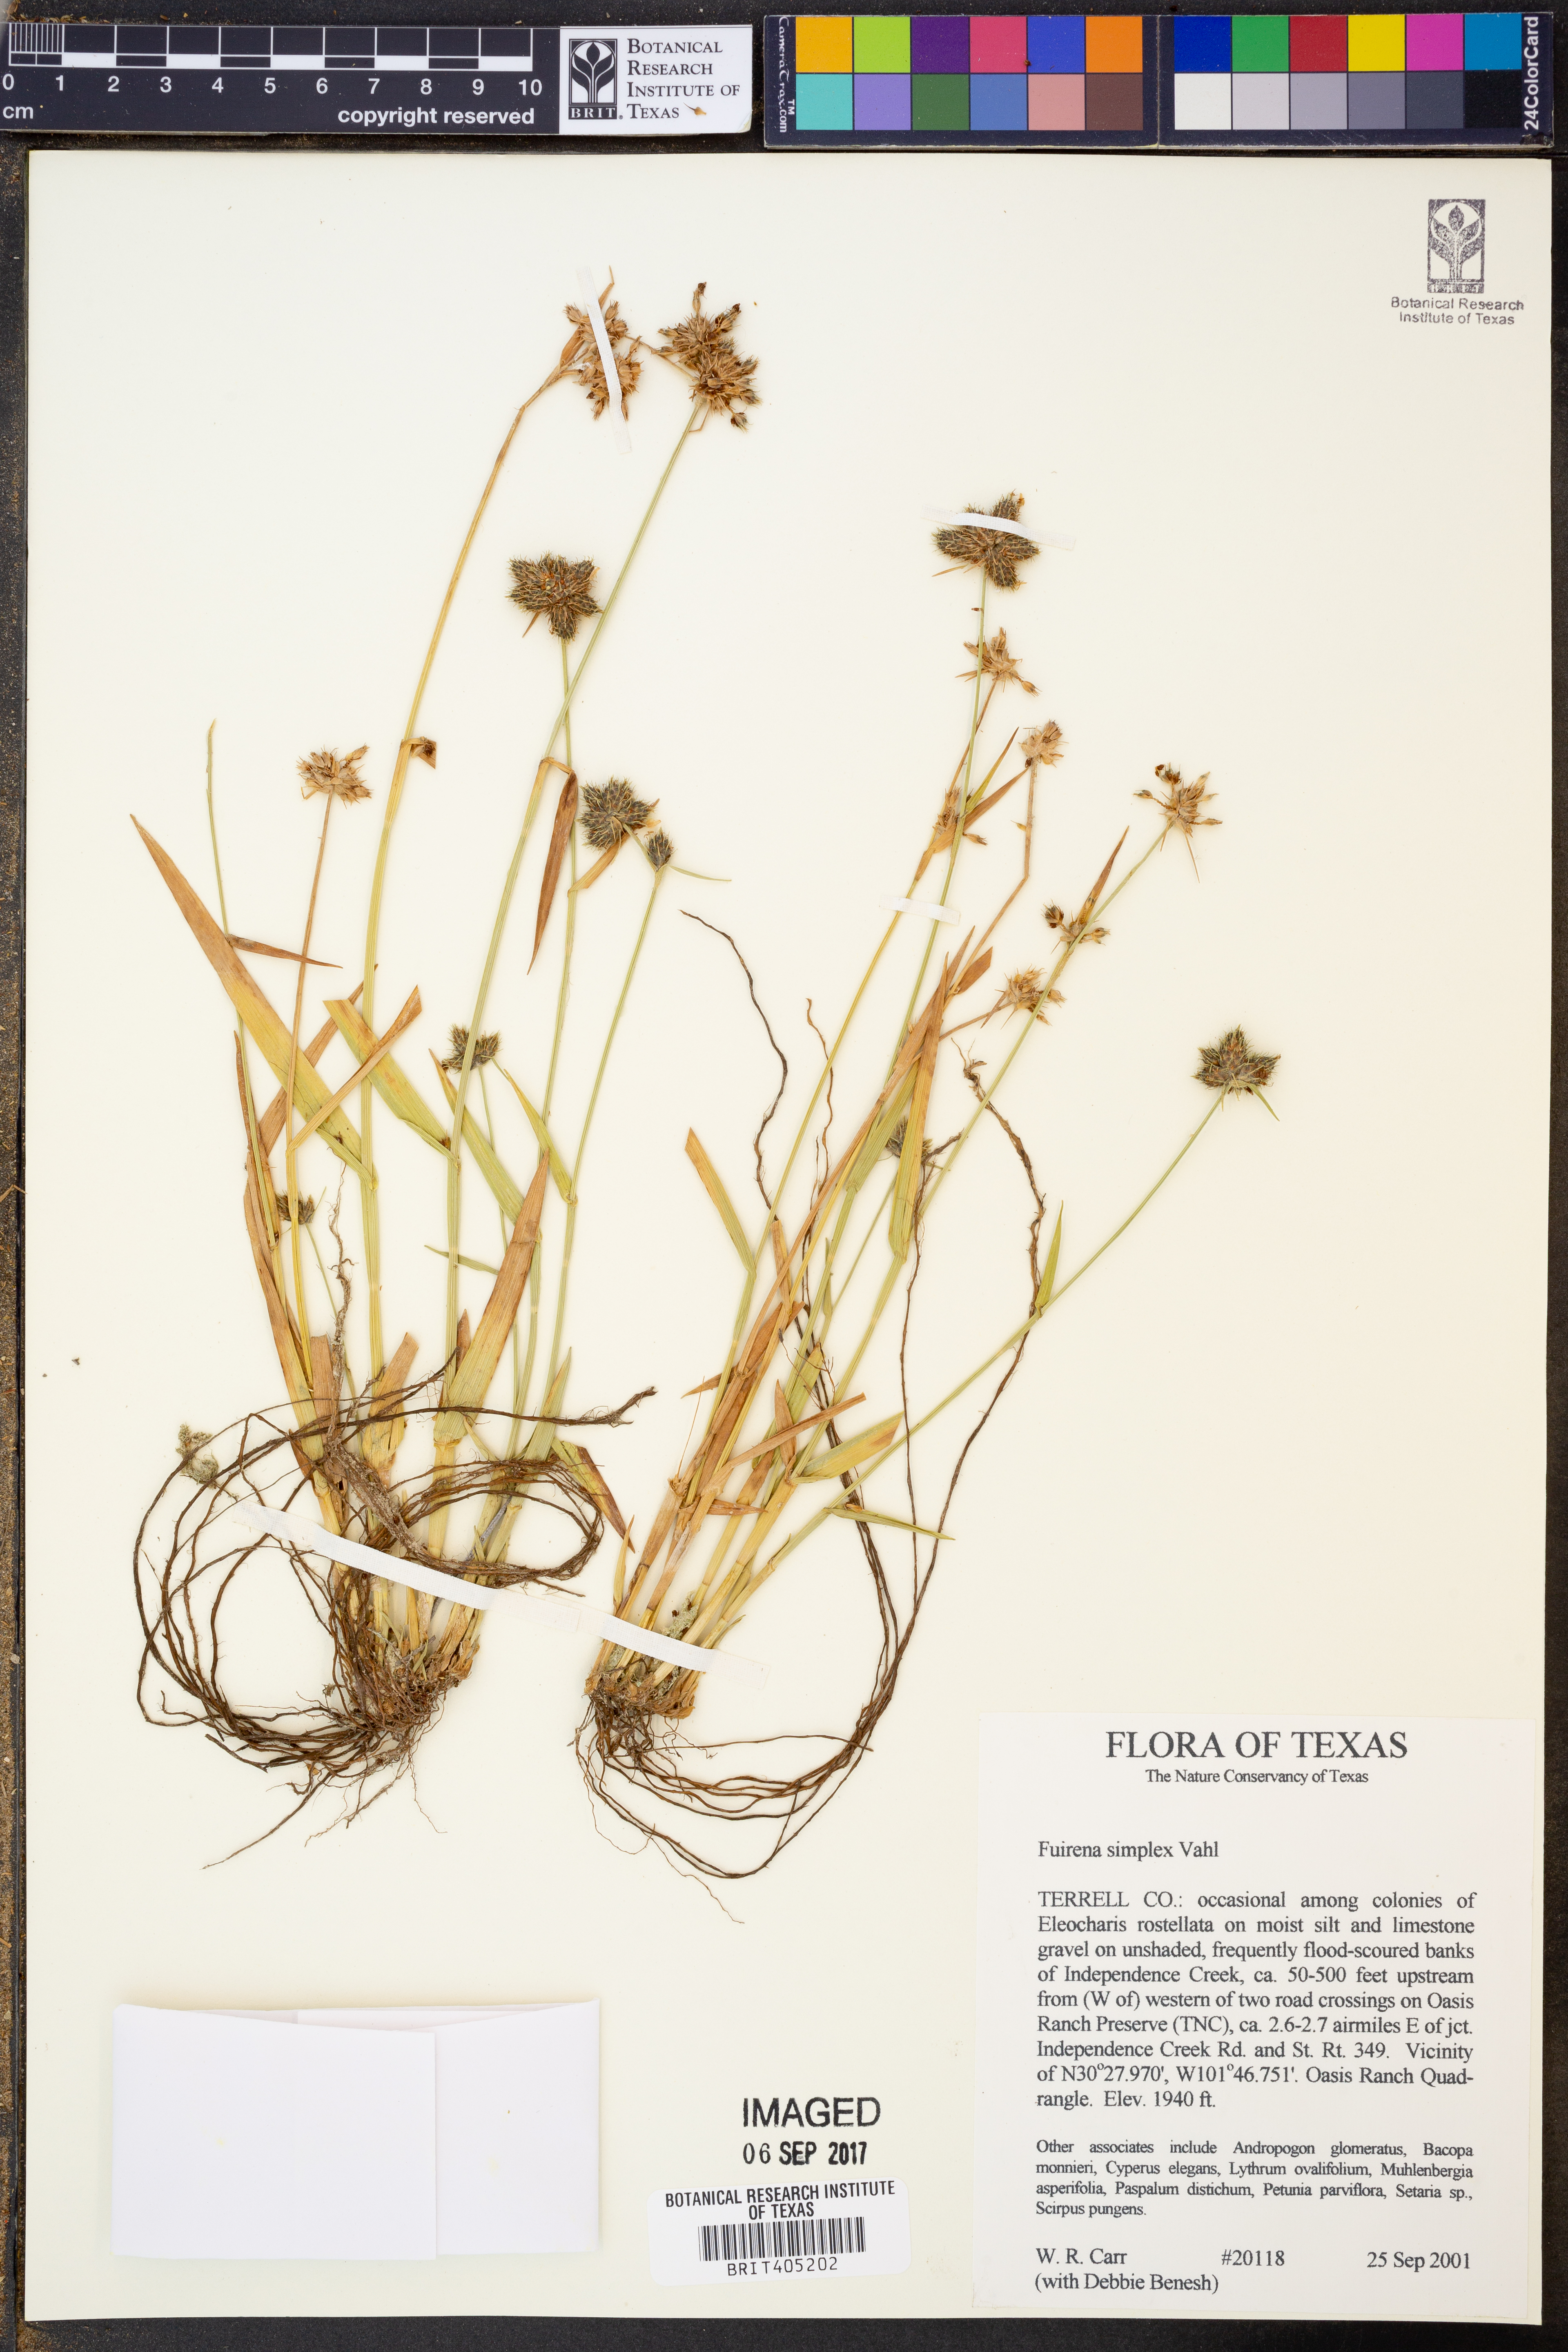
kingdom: Plantae
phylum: Tracheophyta
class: Liliopsida
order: Poales
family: Cyperaceae
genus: Fuirena
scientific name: Fuirena simplex
